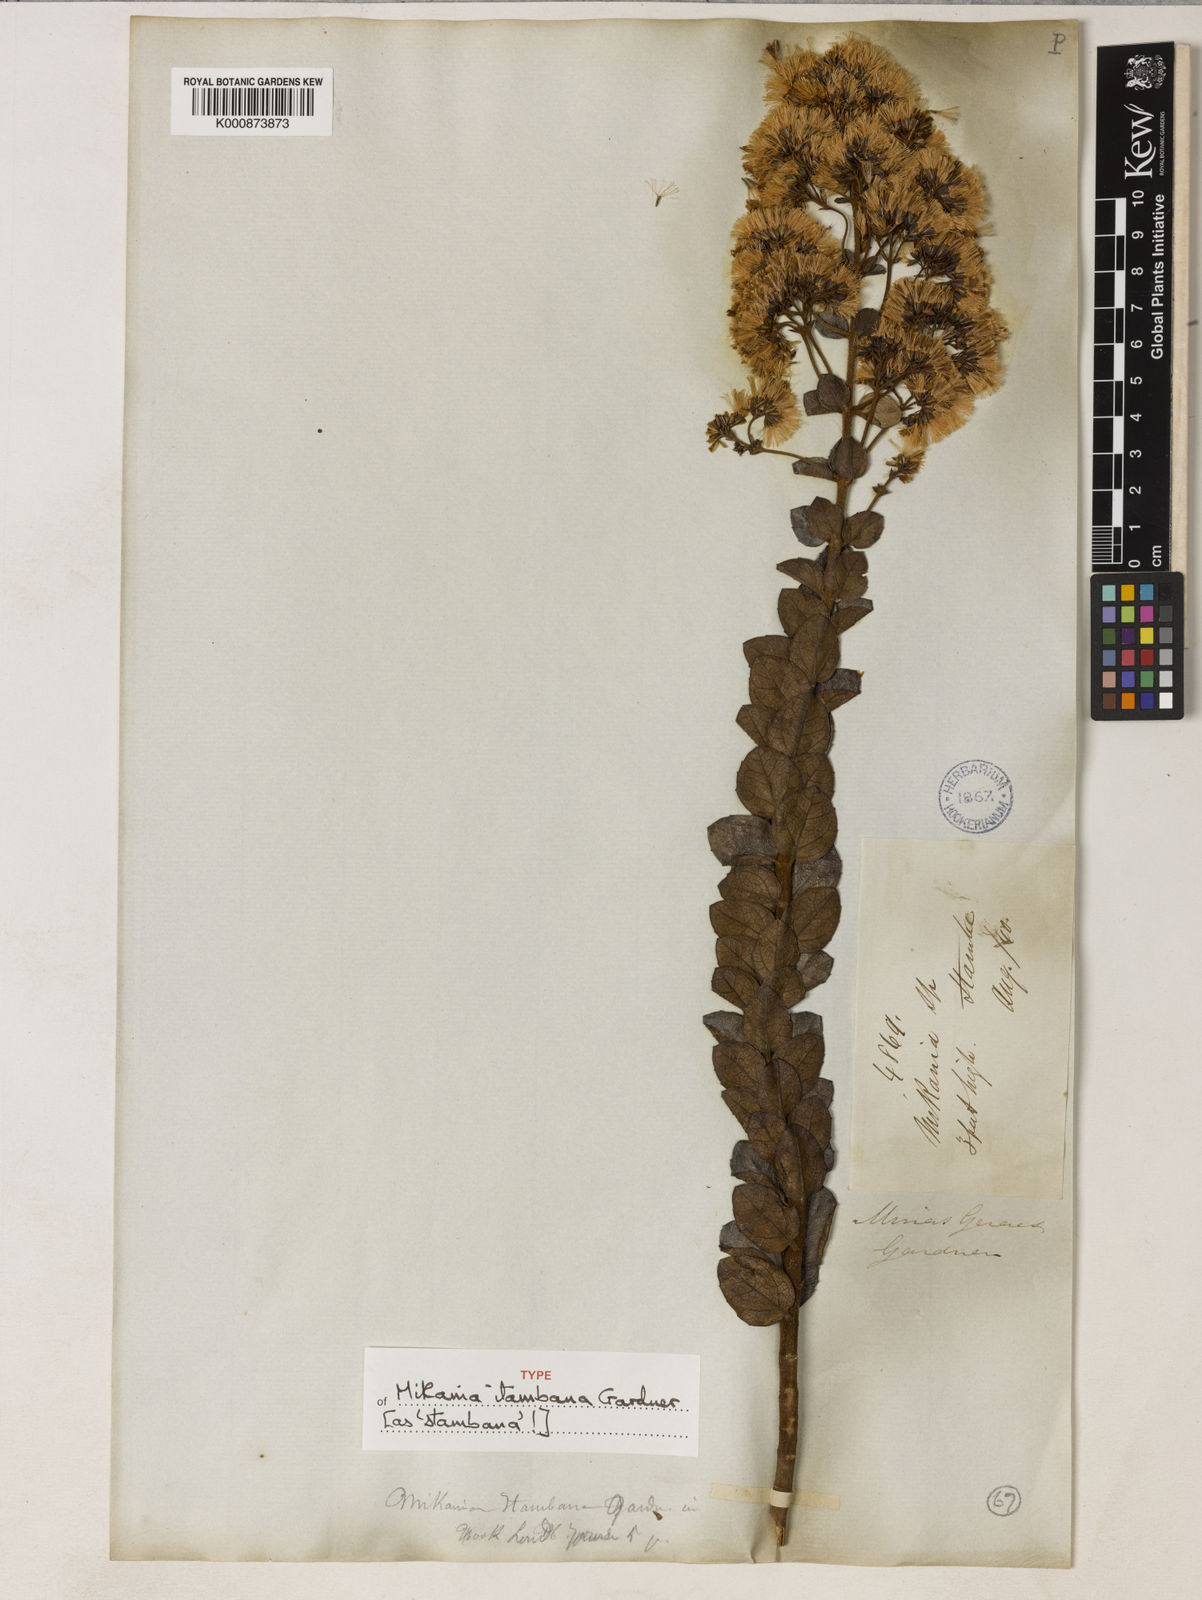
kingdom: Plantae
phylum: Tracheophyta
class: Magnoliopsida
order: Asterales
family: Asteraceae
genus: Mikania
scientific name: Mikania itambana
